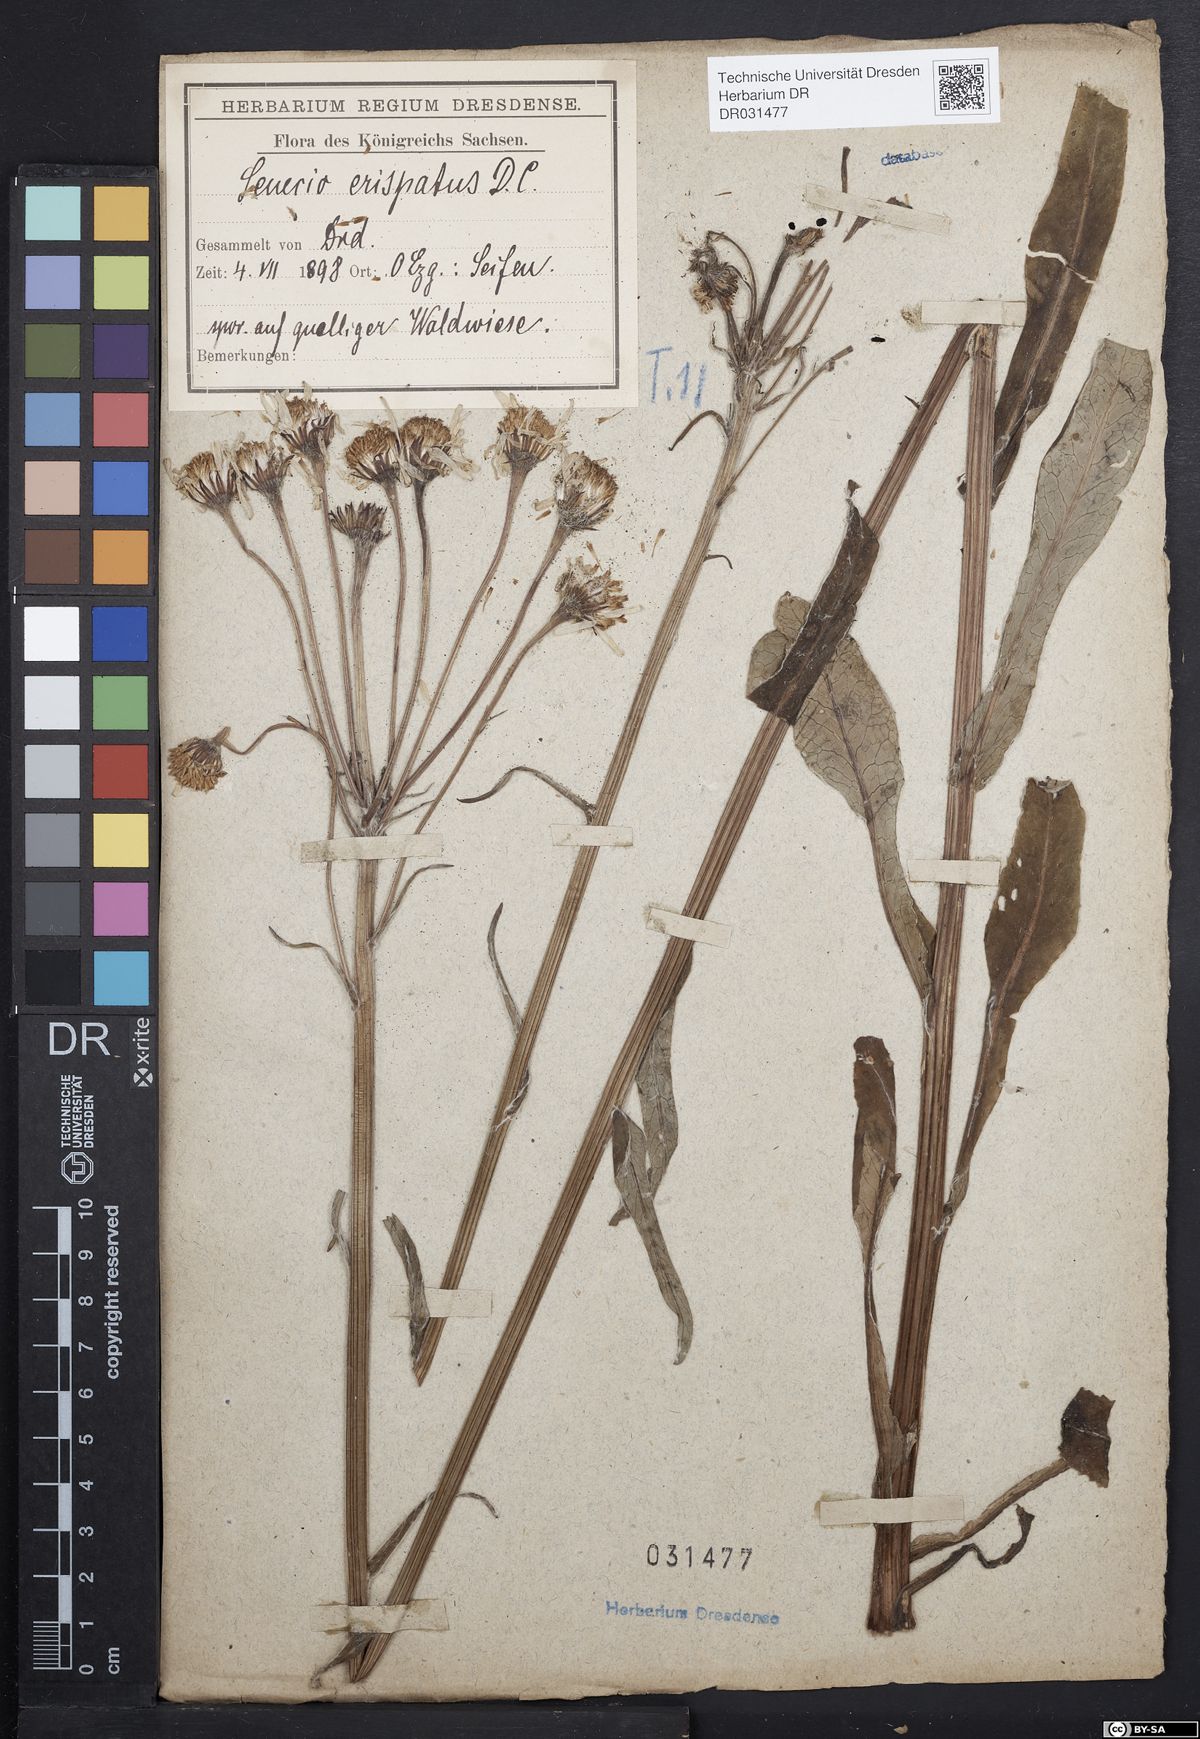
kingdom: Plantae
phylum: Tracheophyta
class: Magnoliopsida
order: Asterales
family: Asteraceae
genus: Tephroseris
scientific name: Tephroseris crispa
